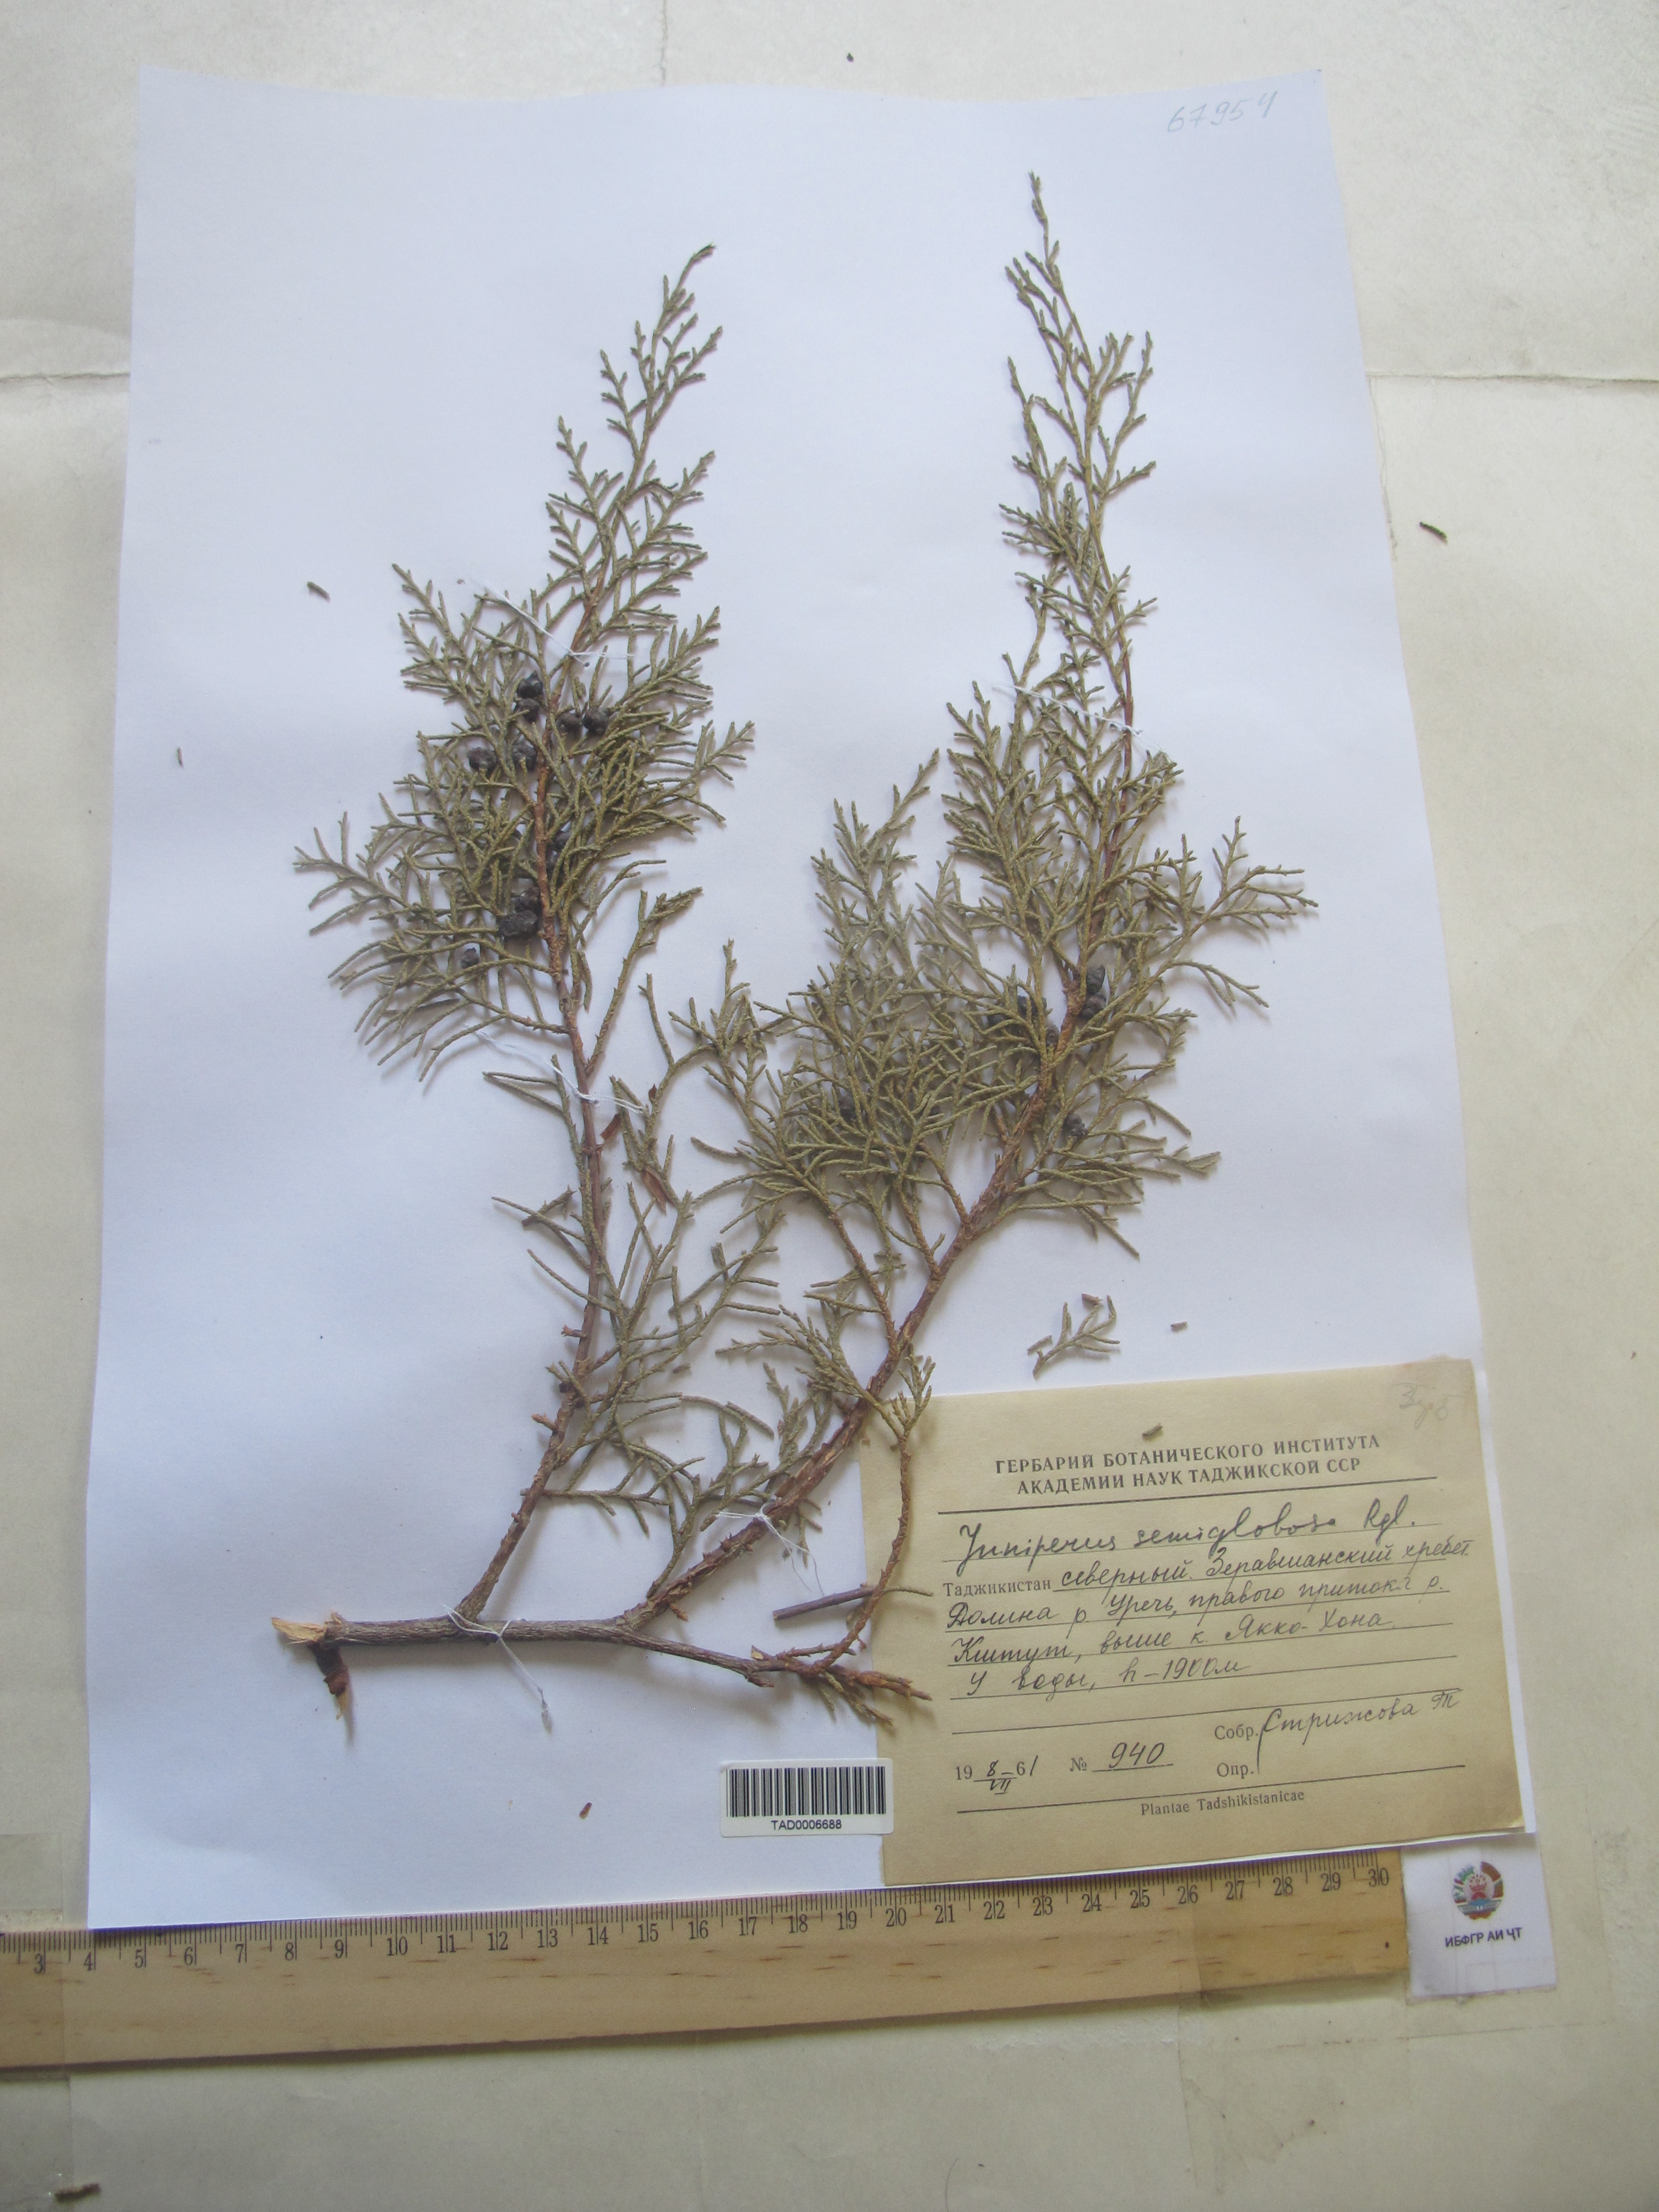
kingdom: Plantae
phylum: Tracheophyta
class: Pinopsida
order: Pinales
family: Cupressaceae
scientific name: Cupressaceae
